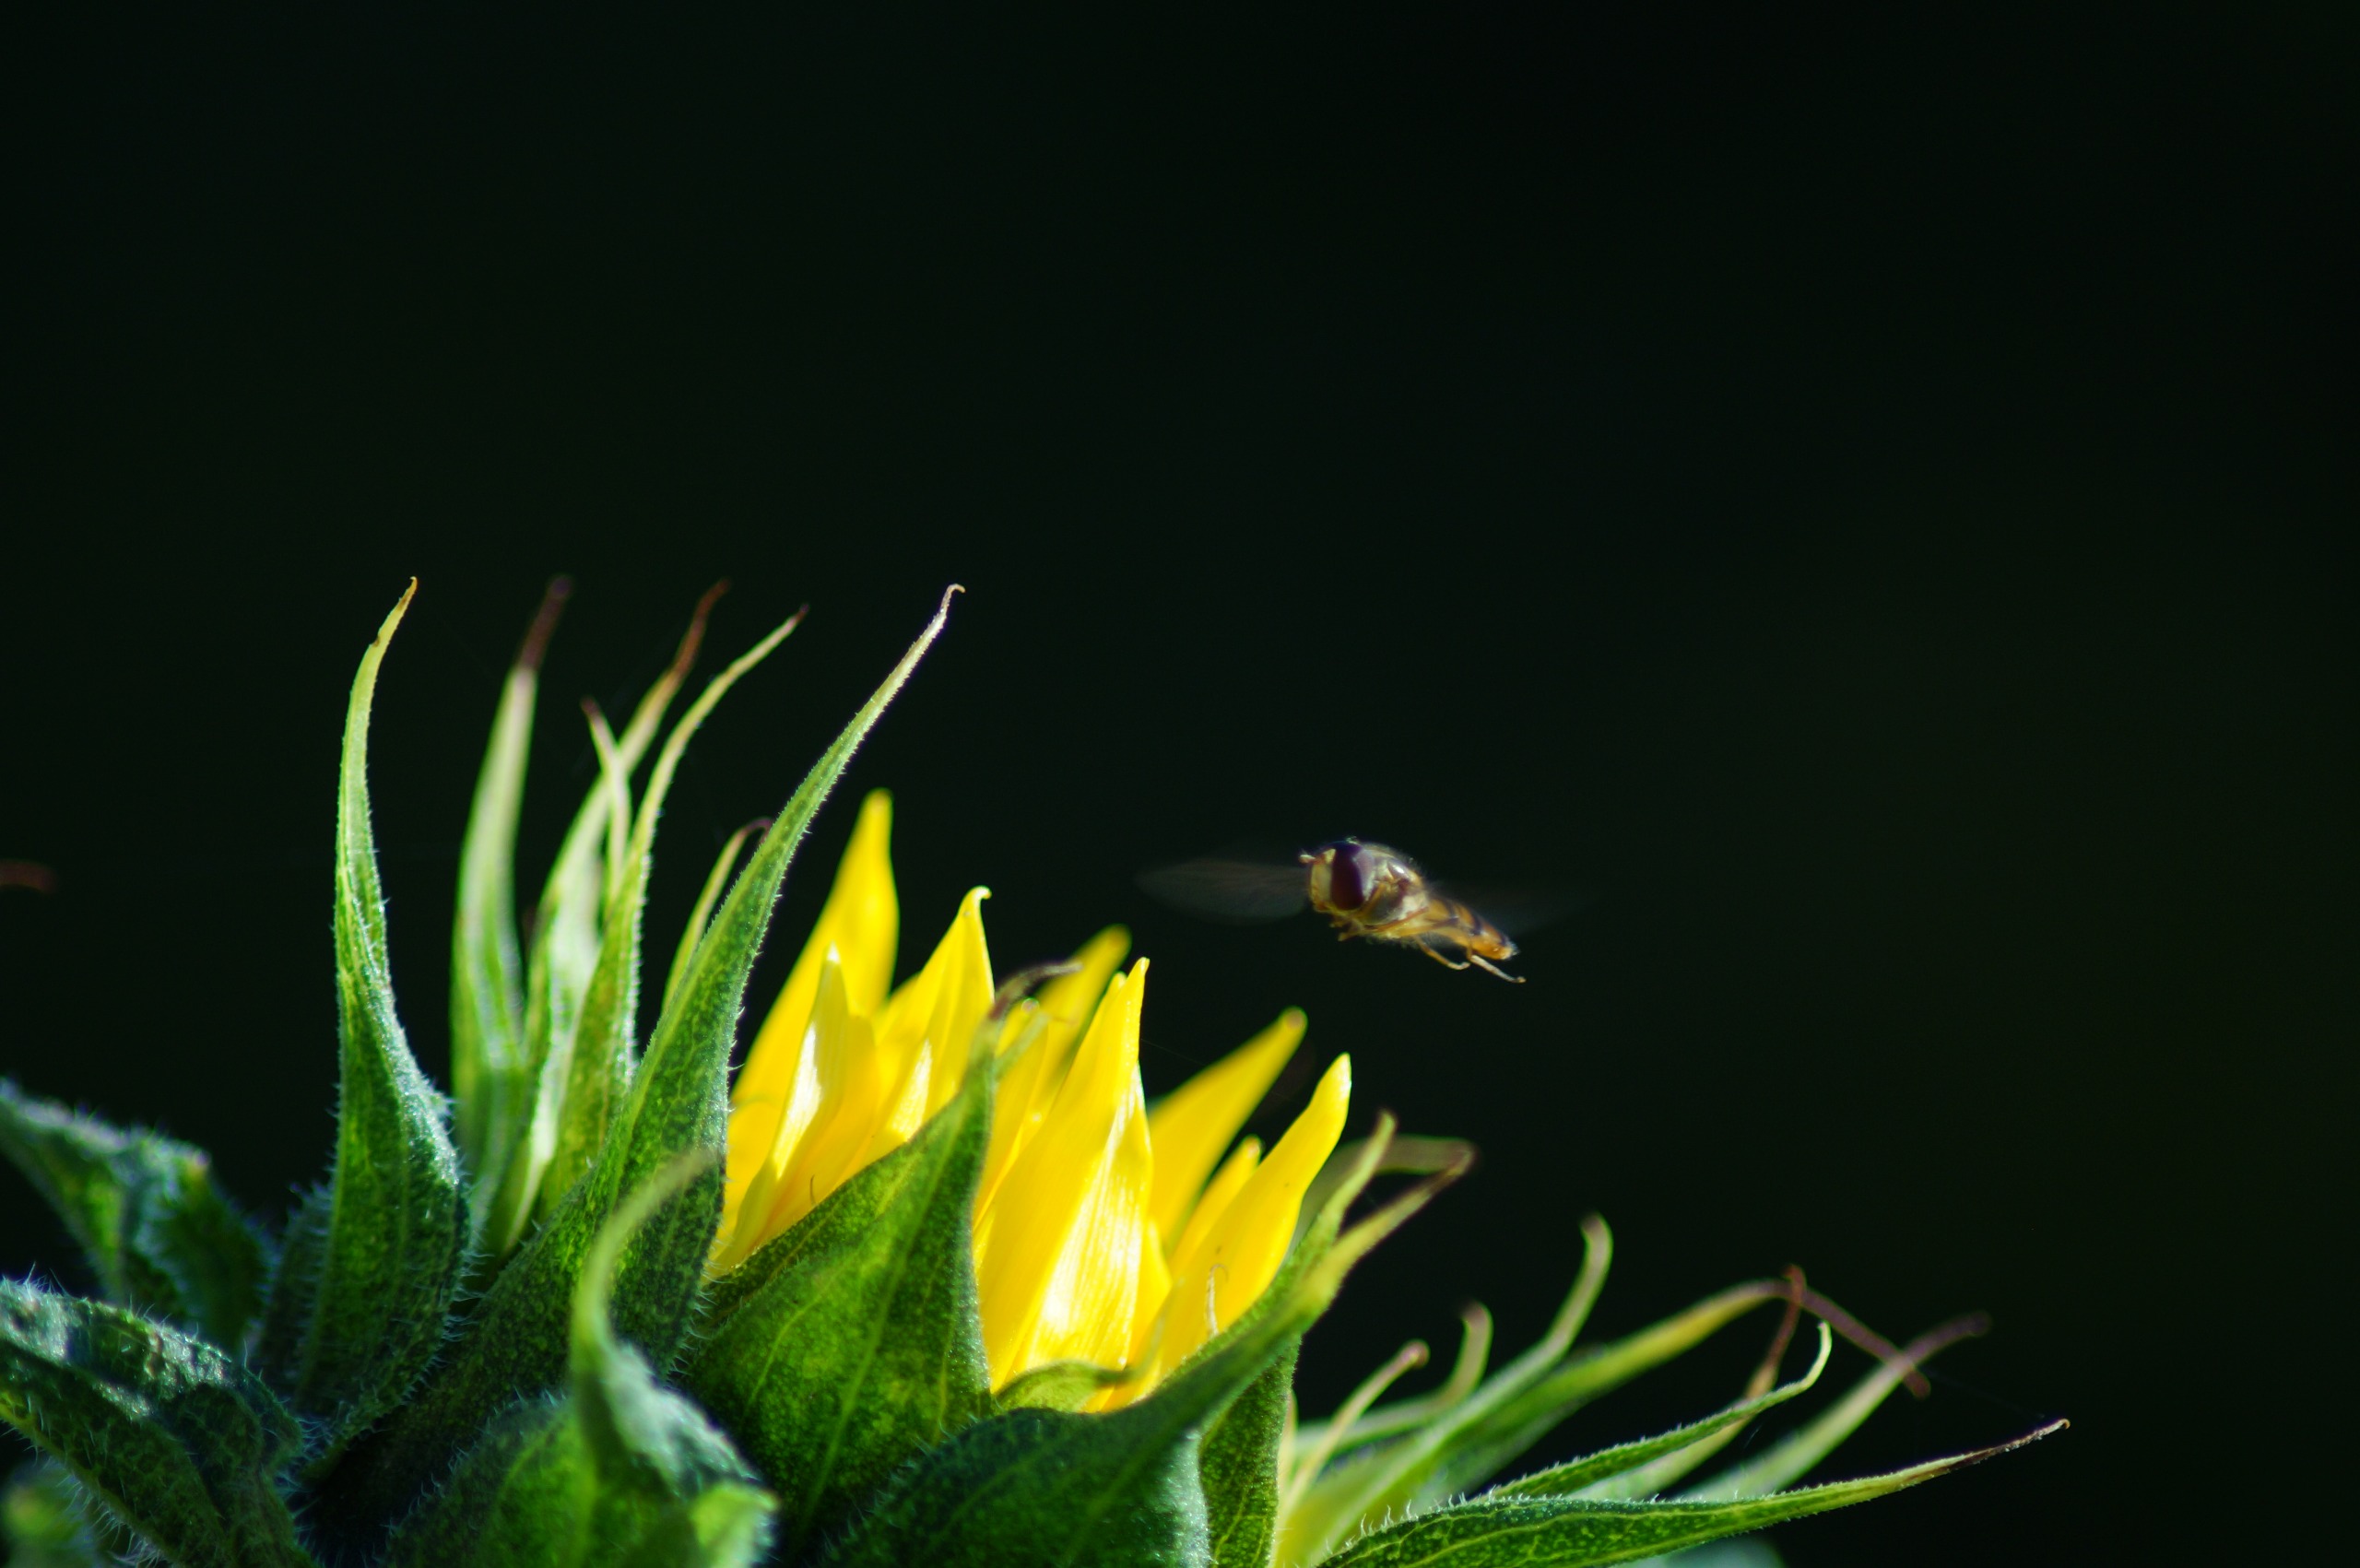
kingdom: Animalia
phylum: Arthropoda
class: Insecta
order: Diptera
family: Syrphidae
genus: Episyrphus
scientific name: Episyrphus balteatus
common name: Dobbeltbåndet svirreflue
